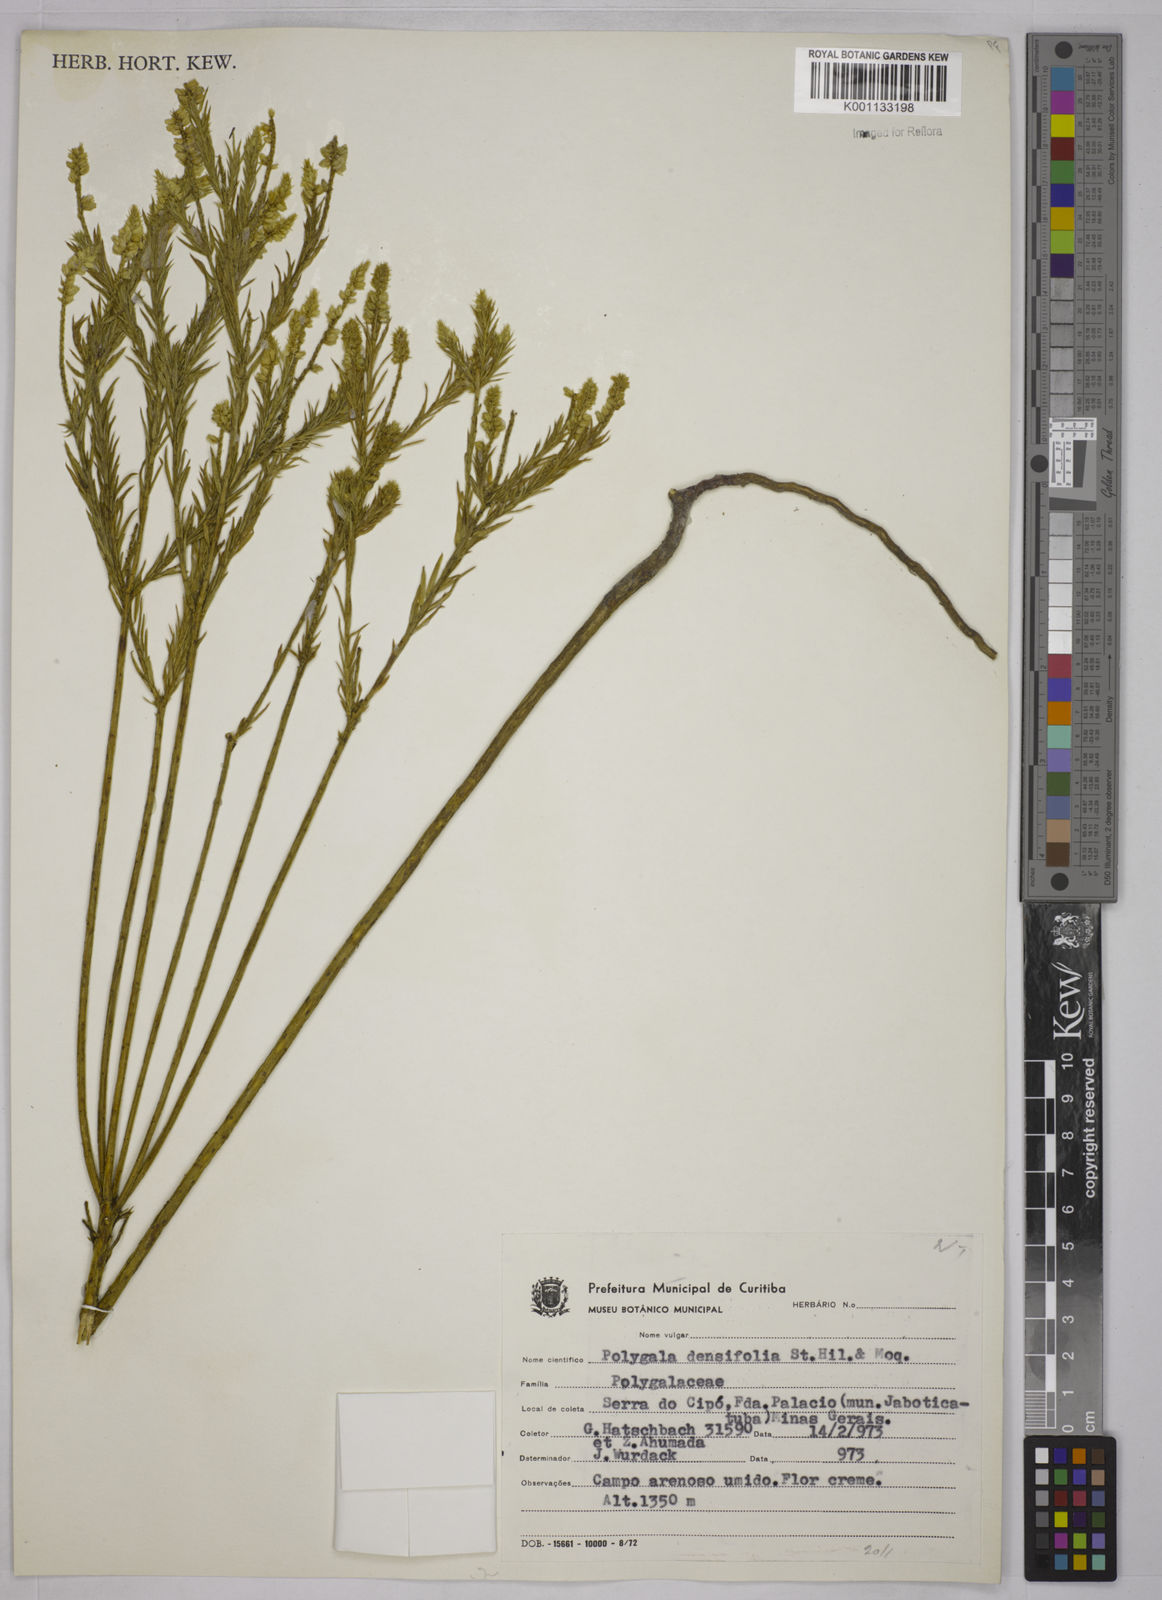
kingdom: Plantae
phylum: Tracheophyta
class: Magnoliopsida
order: Fabales
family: Polygalaceae
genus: Polygala
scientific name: Polygala densifolia
